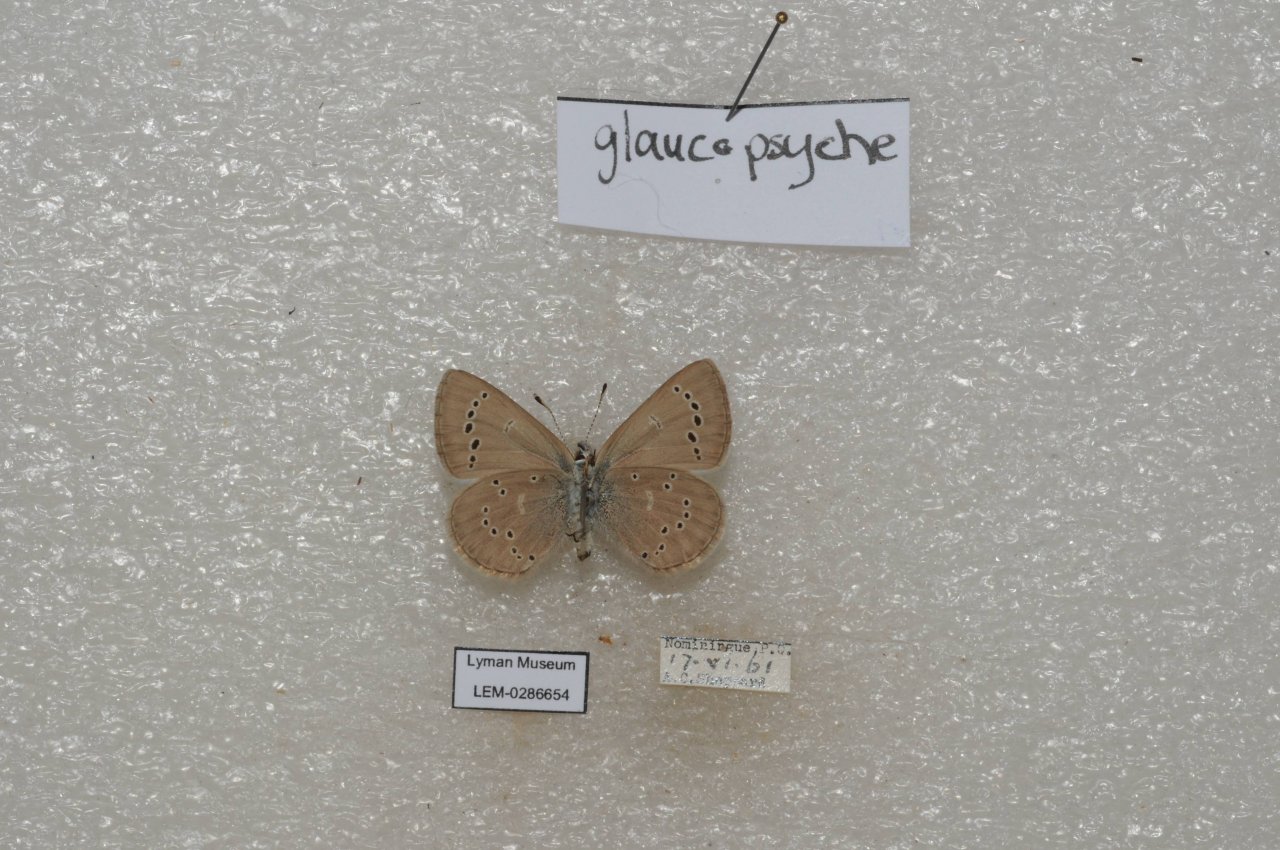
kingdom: Animalia
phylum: Arthropoda
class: Insecta
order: Lepidoptera
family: Lycaenidae
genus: Glaucopsyche
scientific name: Glaucopsyche lygdamus
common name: Silvery Blue
